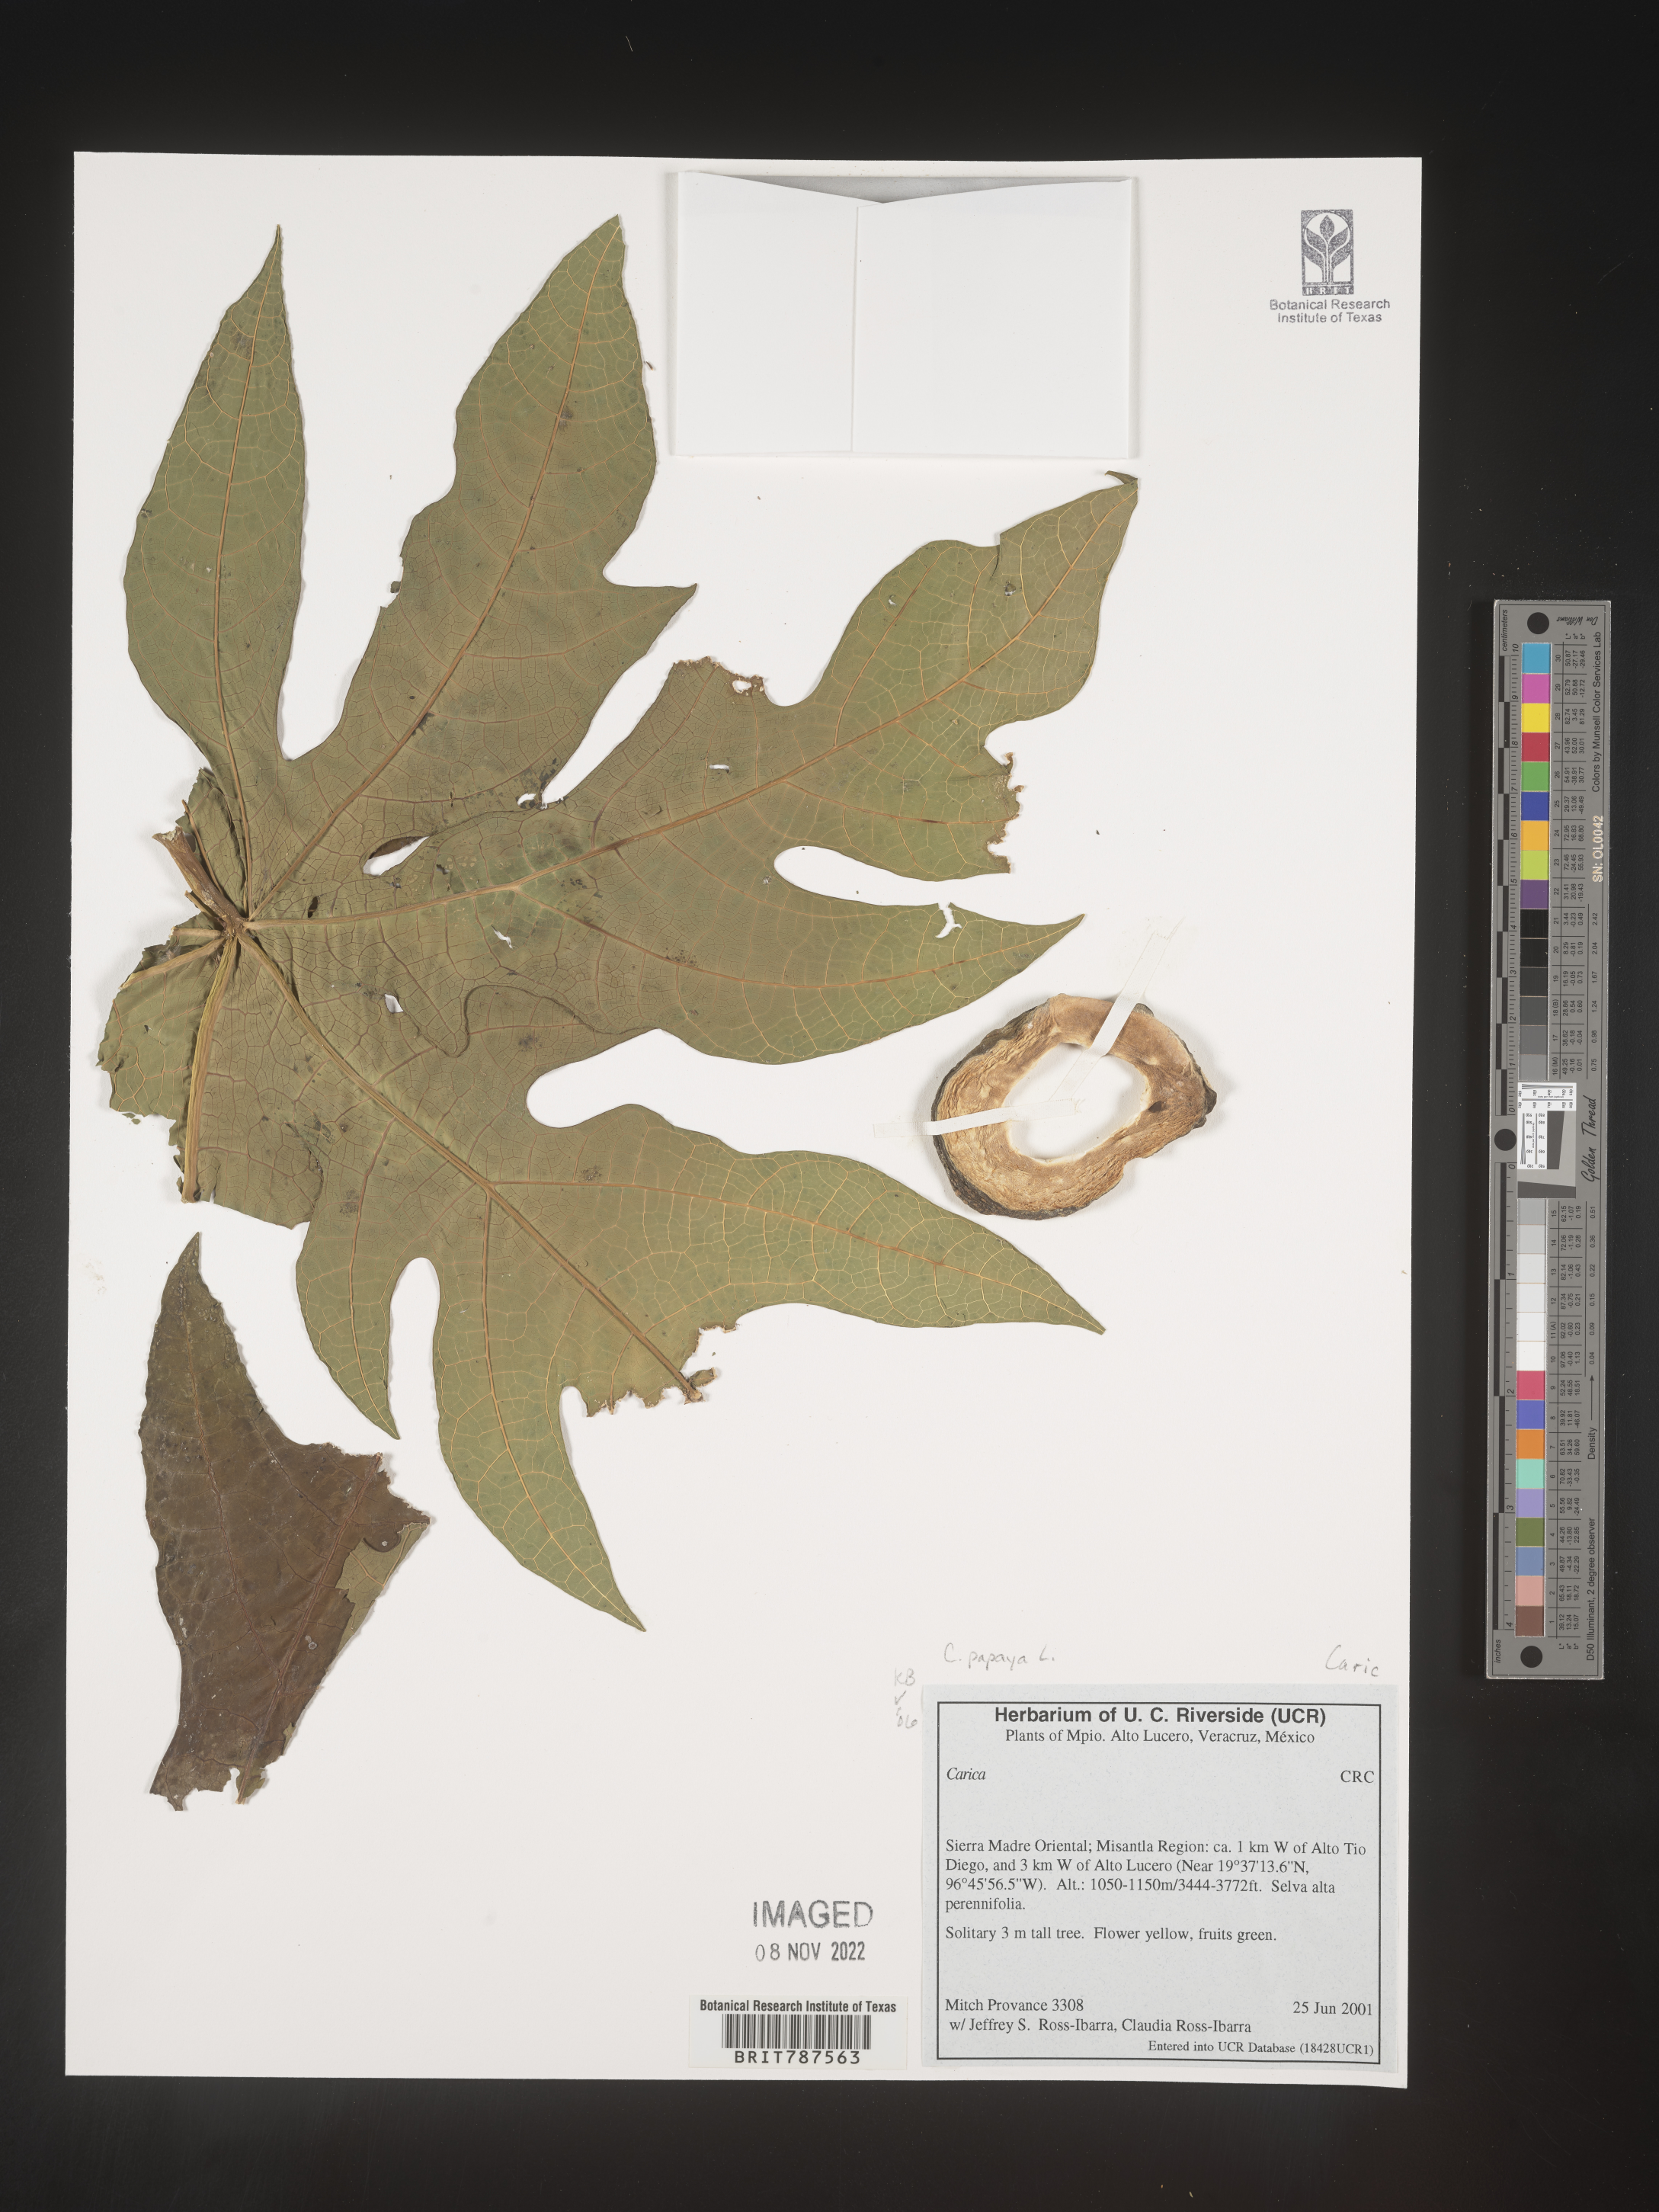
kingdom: Plantae
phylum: Tracheophyta
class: Magnoliopsida
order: Brassicales
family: Caricaceae
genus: Carica
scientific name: Carica
